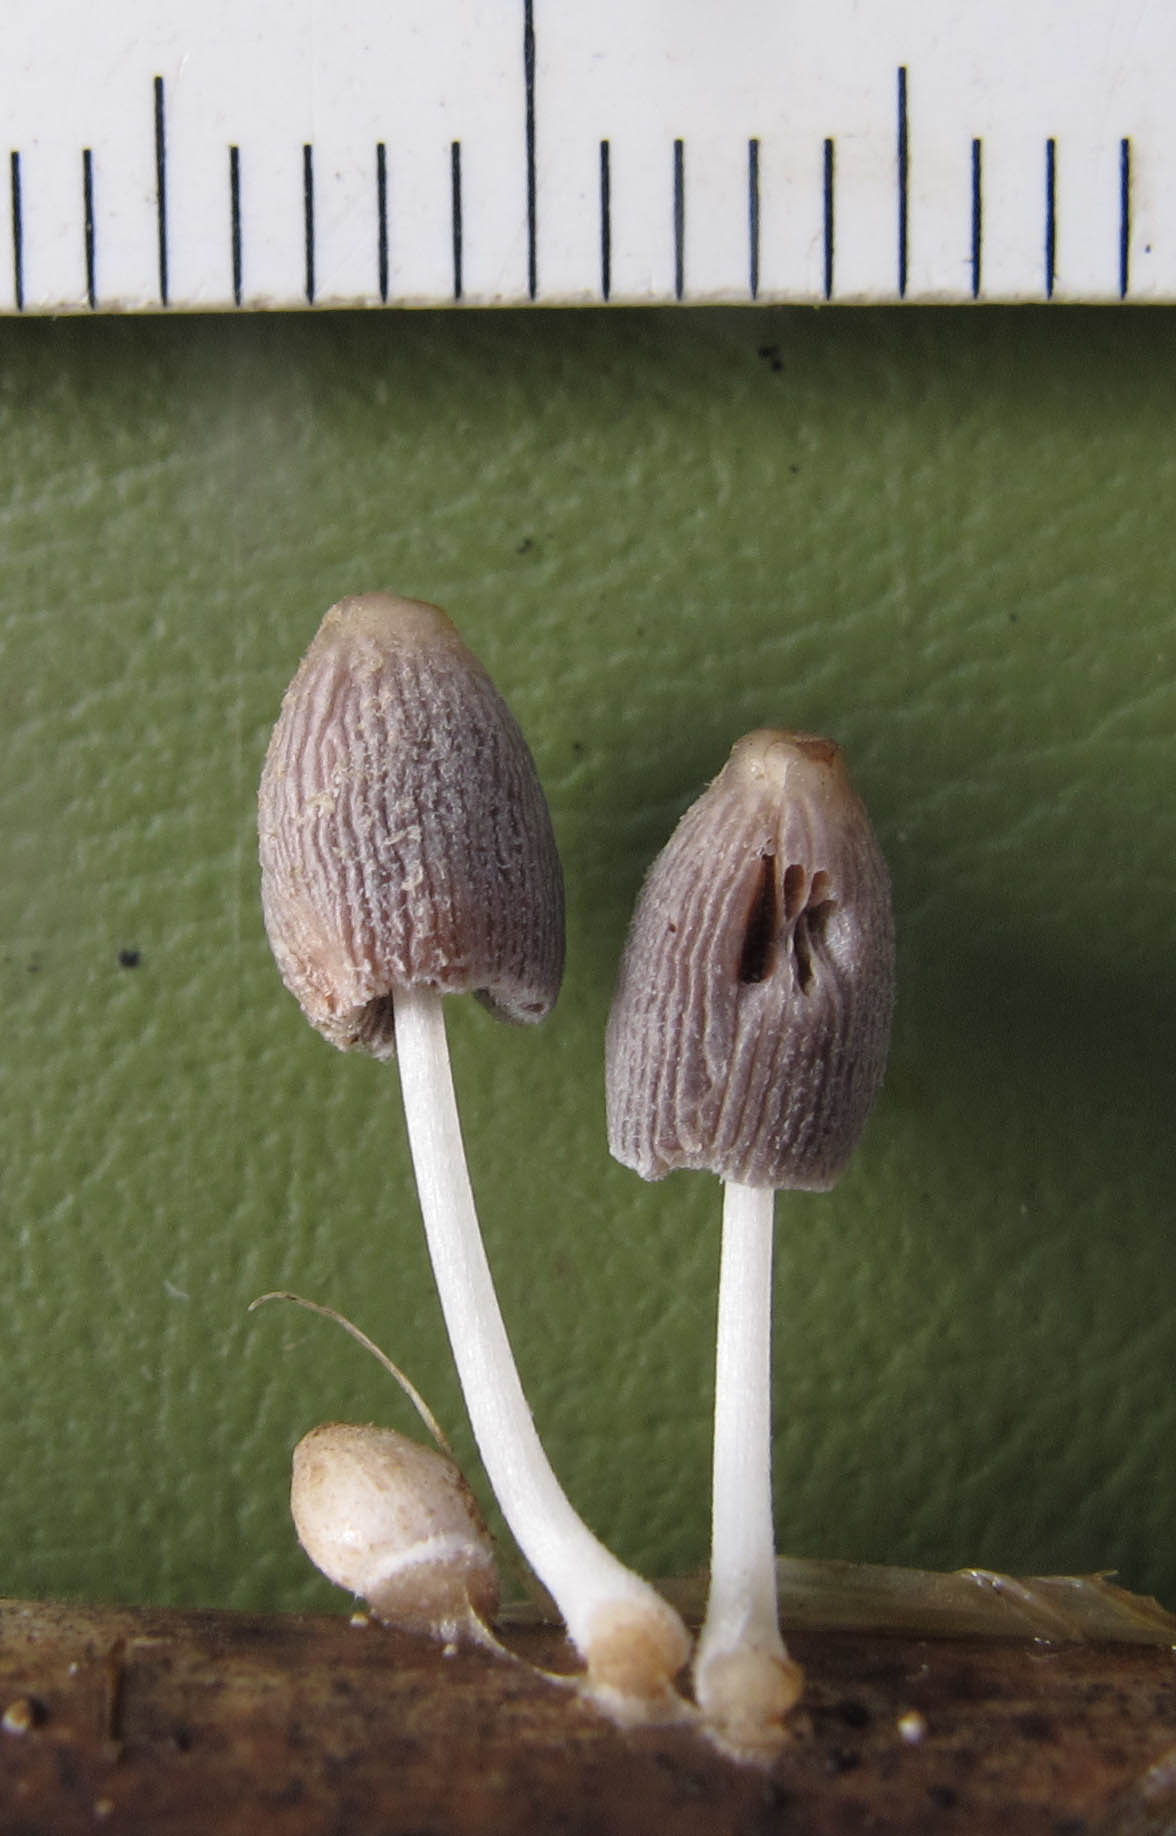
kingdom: Fungi
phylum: Basidiomycota
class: Agaricomycetes
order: Agaricales
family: Psathyrellaceae
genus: Coprinopsis
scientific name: Coprinopsis kubickae
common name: amfibie-blækhat
